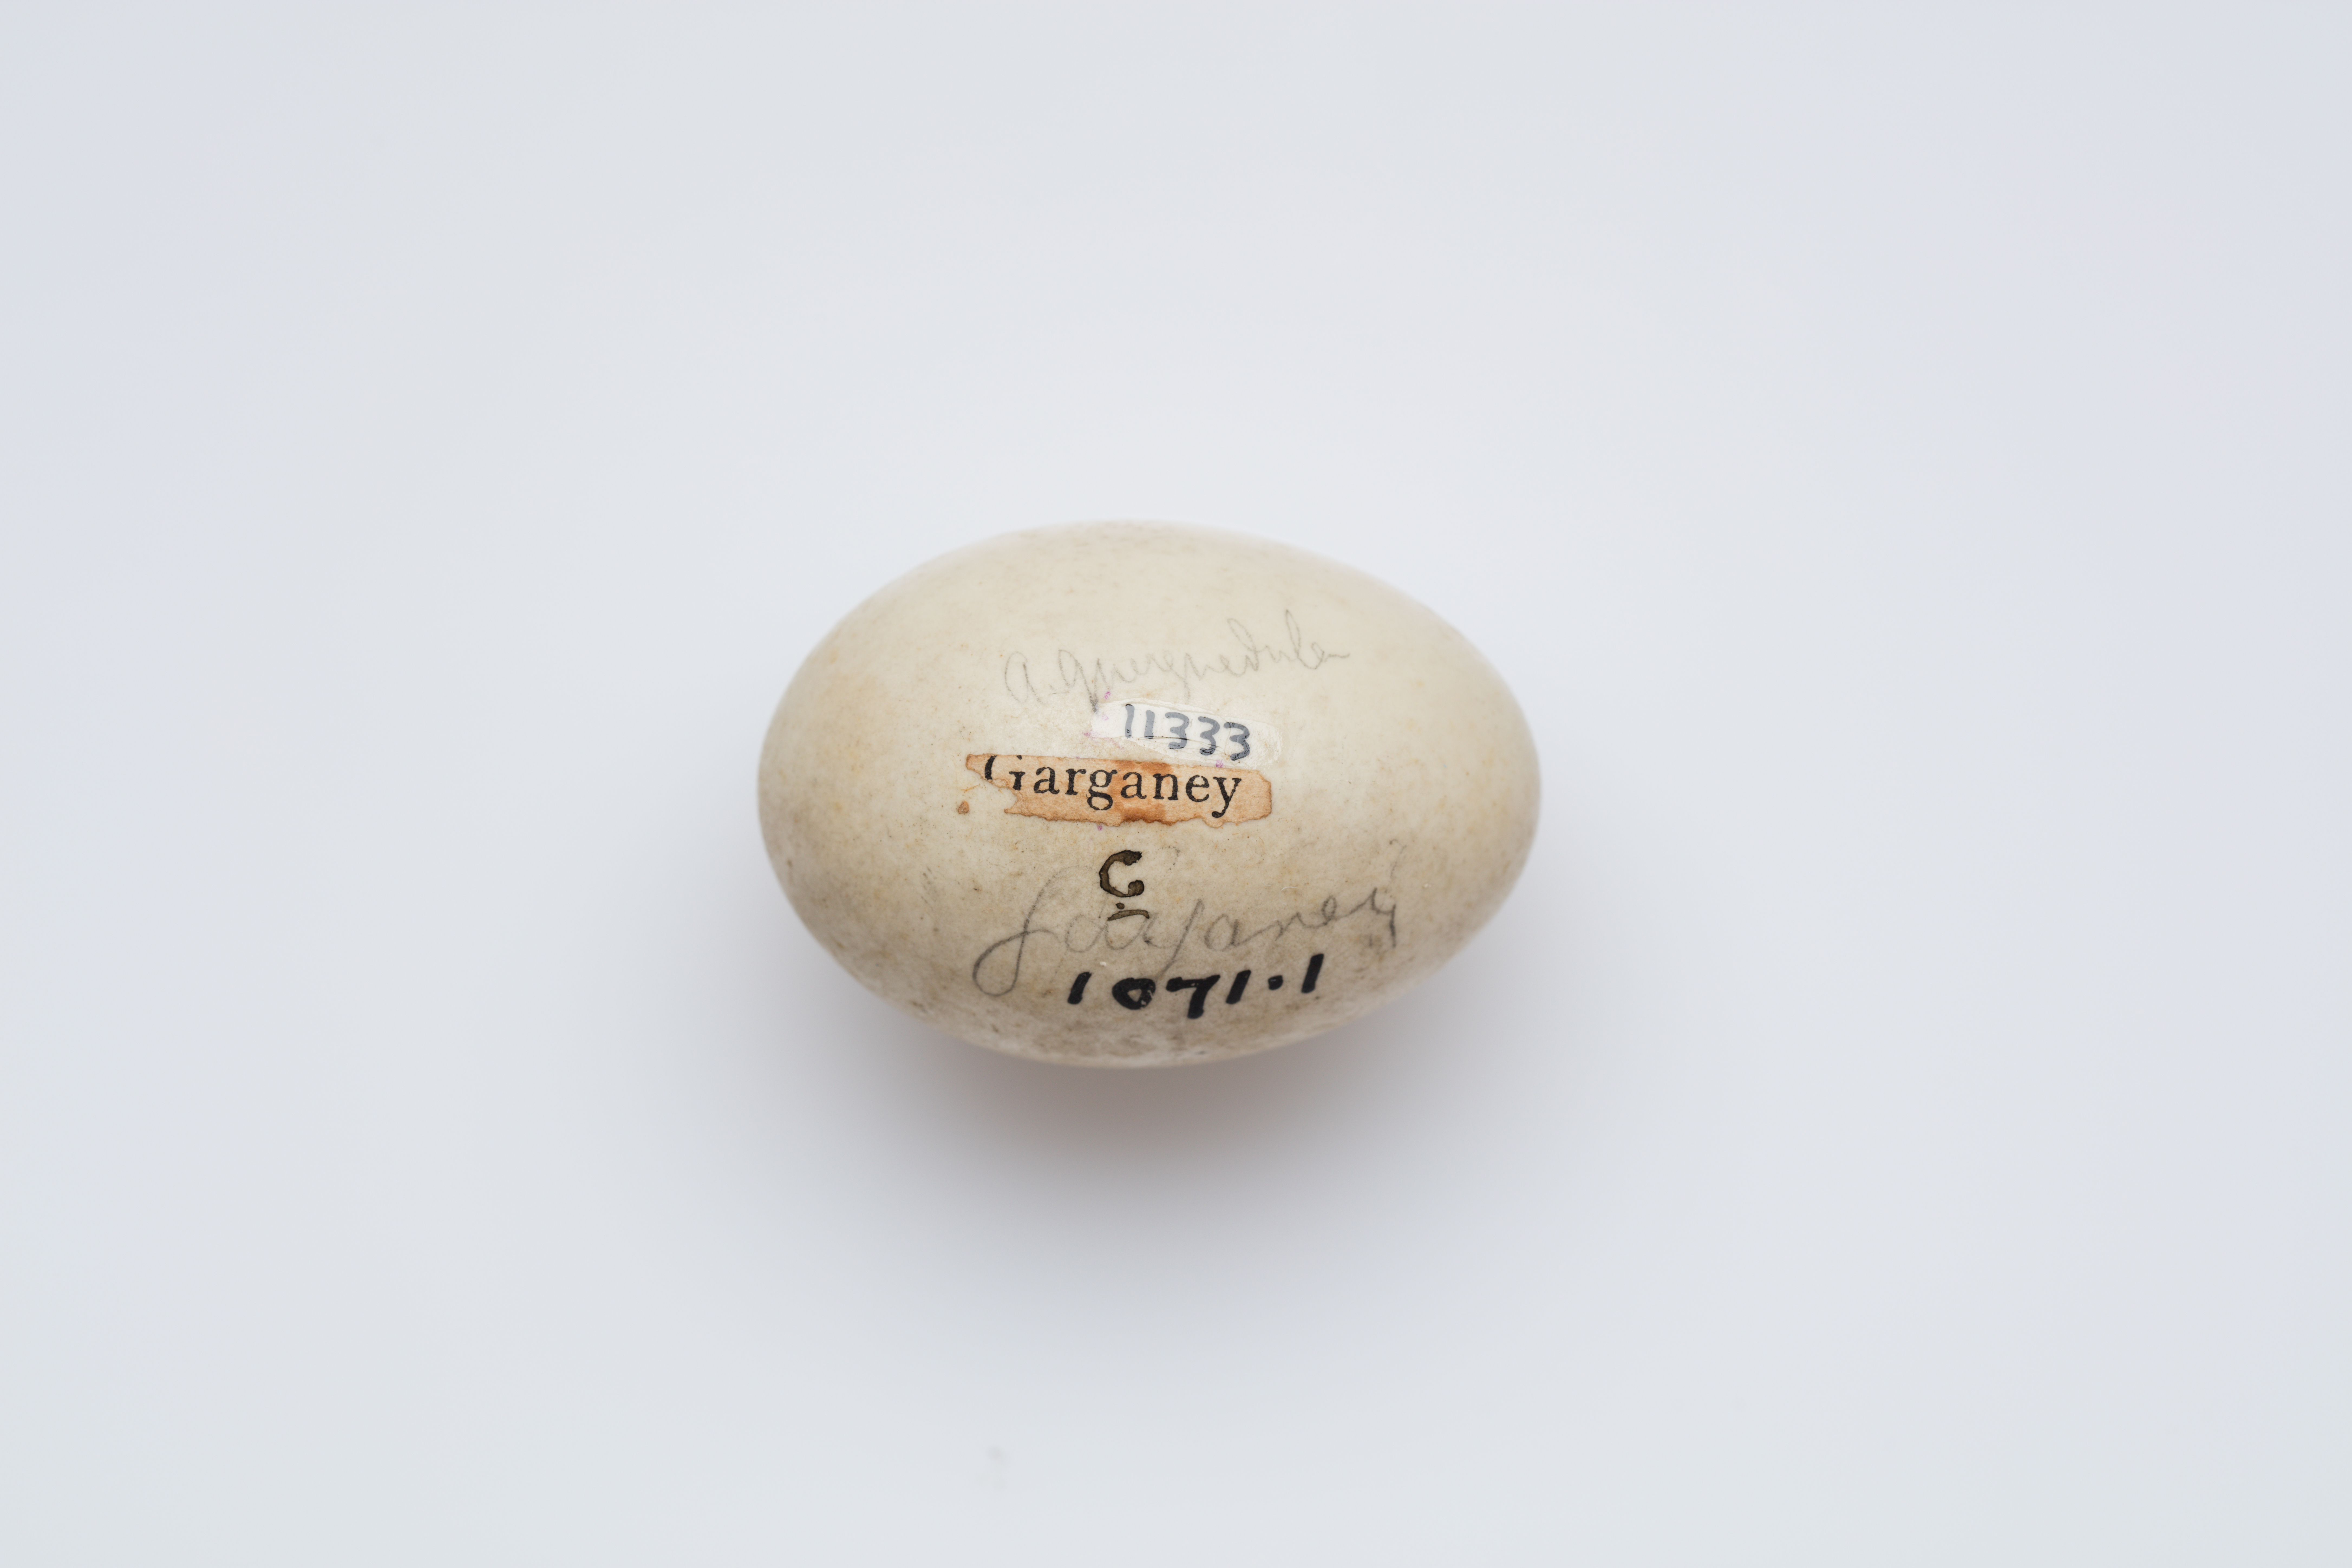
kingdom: Animalia
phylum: Chordata
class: Aves
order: Anseriformes
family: Anatidae
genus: Spatula
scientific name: Spatula querquedula
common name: Garganey
